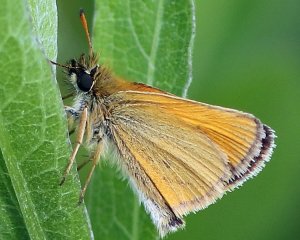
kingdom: Animalia
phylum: Arthropoda
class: Insecta
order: Lepidoptera
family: Hesperiidae
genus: Thymelicus
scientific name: Thymelicus lineola
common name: European Skipper
